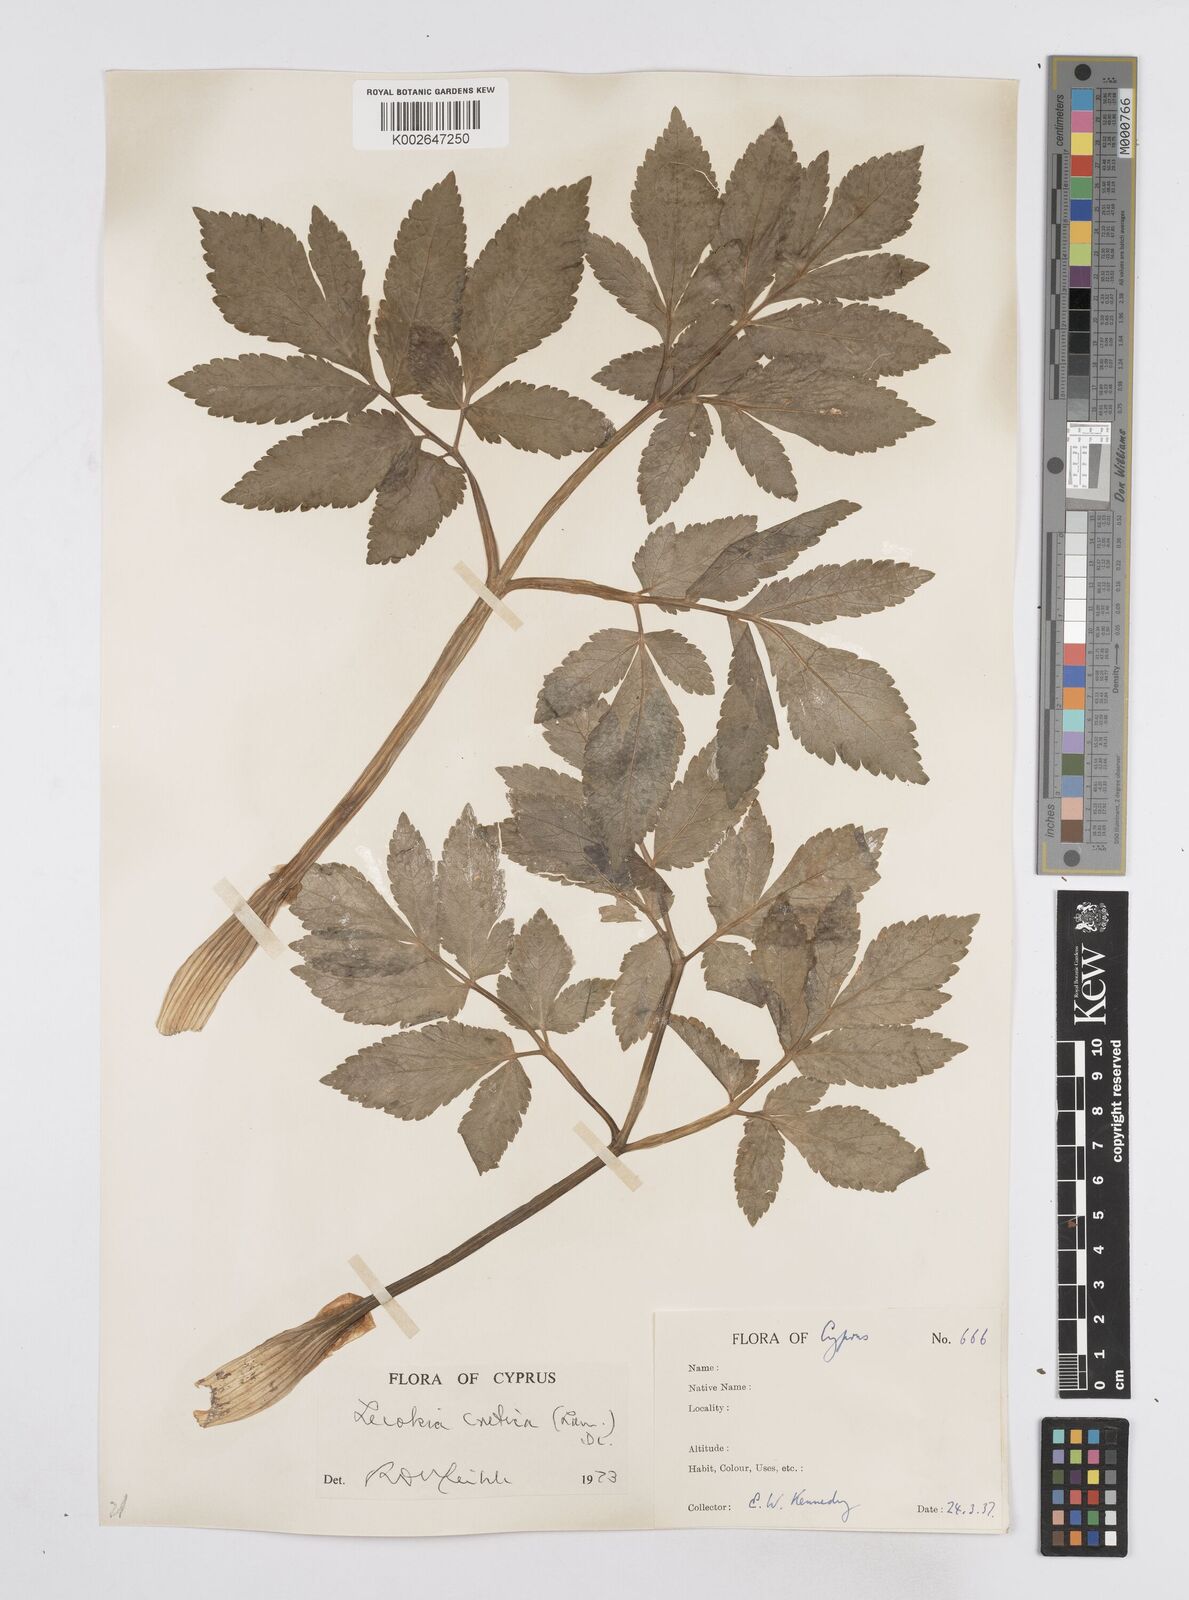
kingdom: Plantae
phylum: Tracheophyta
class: Magnoliopsida
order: Apiales
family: Apiaceae
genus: Lecokia
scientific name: Lecokia cretica
